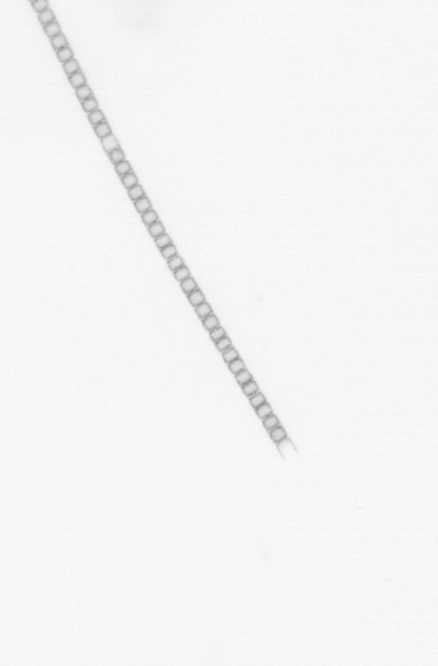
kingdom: Chromista
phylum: Ochrophyta
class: Bacillariophyceae
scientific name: Bacillariophyceae
